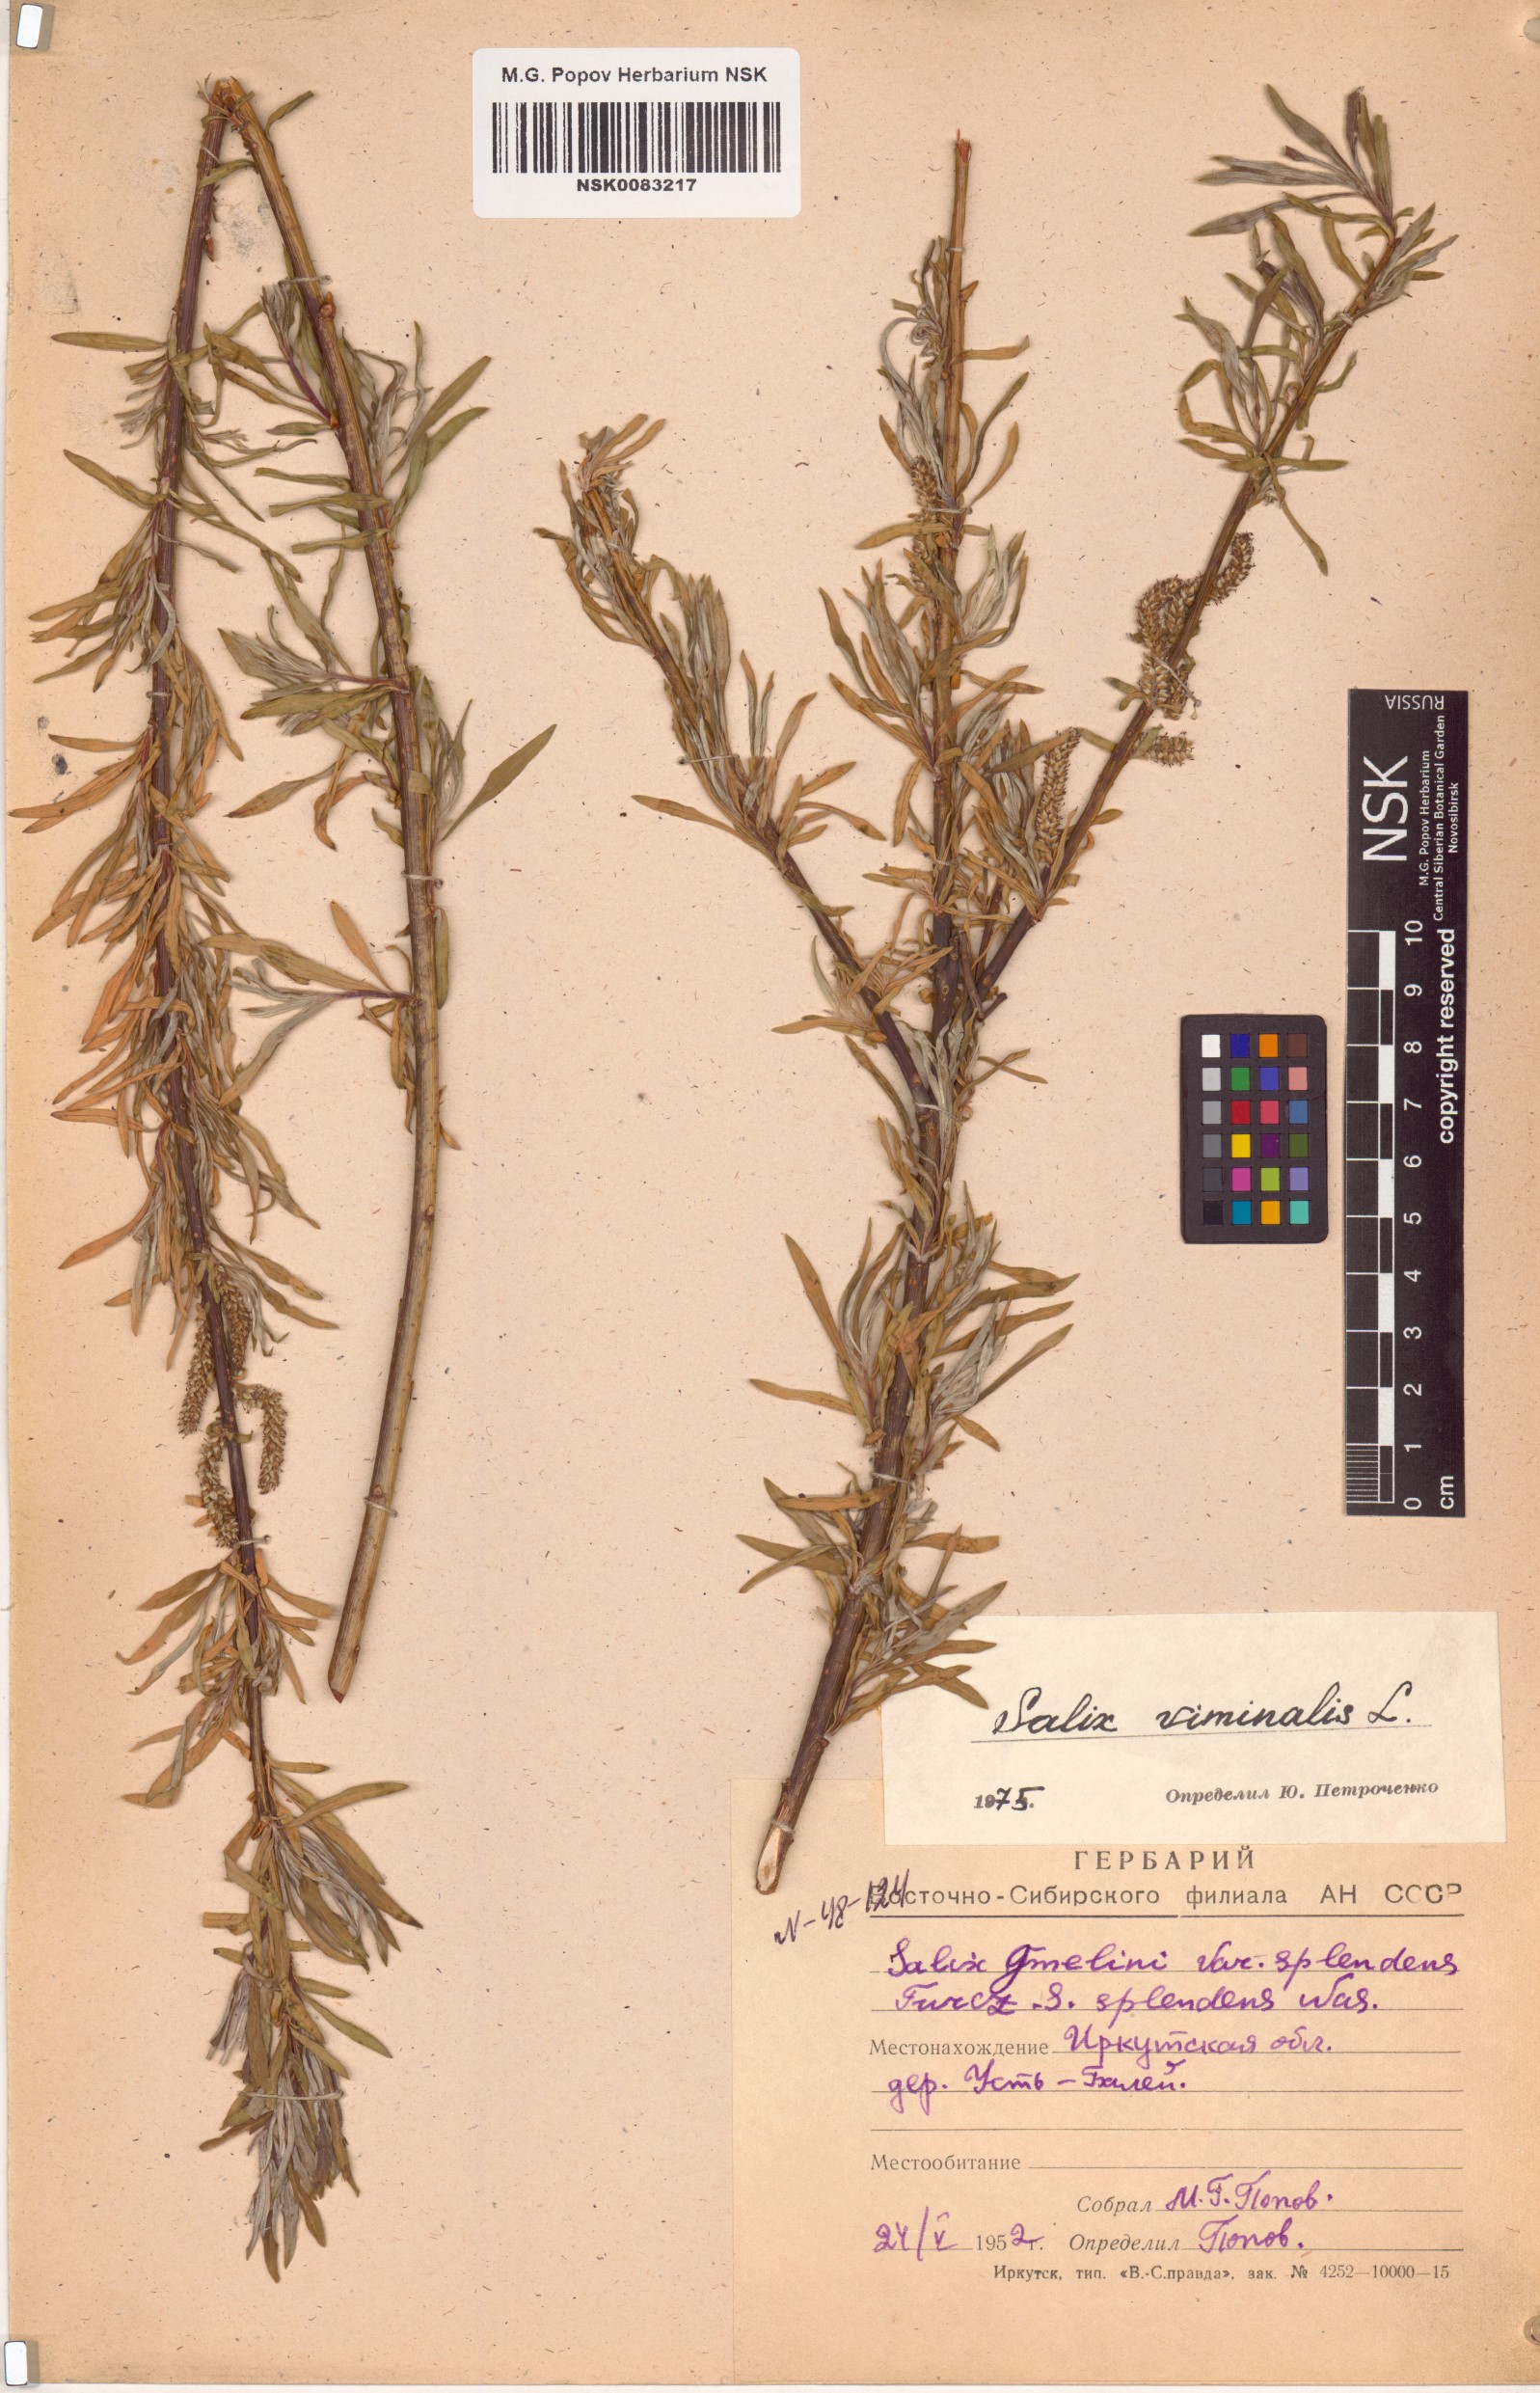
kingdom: Plantae
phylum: Tracheophyta
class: Magnoliopsida
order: Malpighiales
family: Salicaceae
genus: Salix
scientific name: Salix viminalis
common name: Osier
